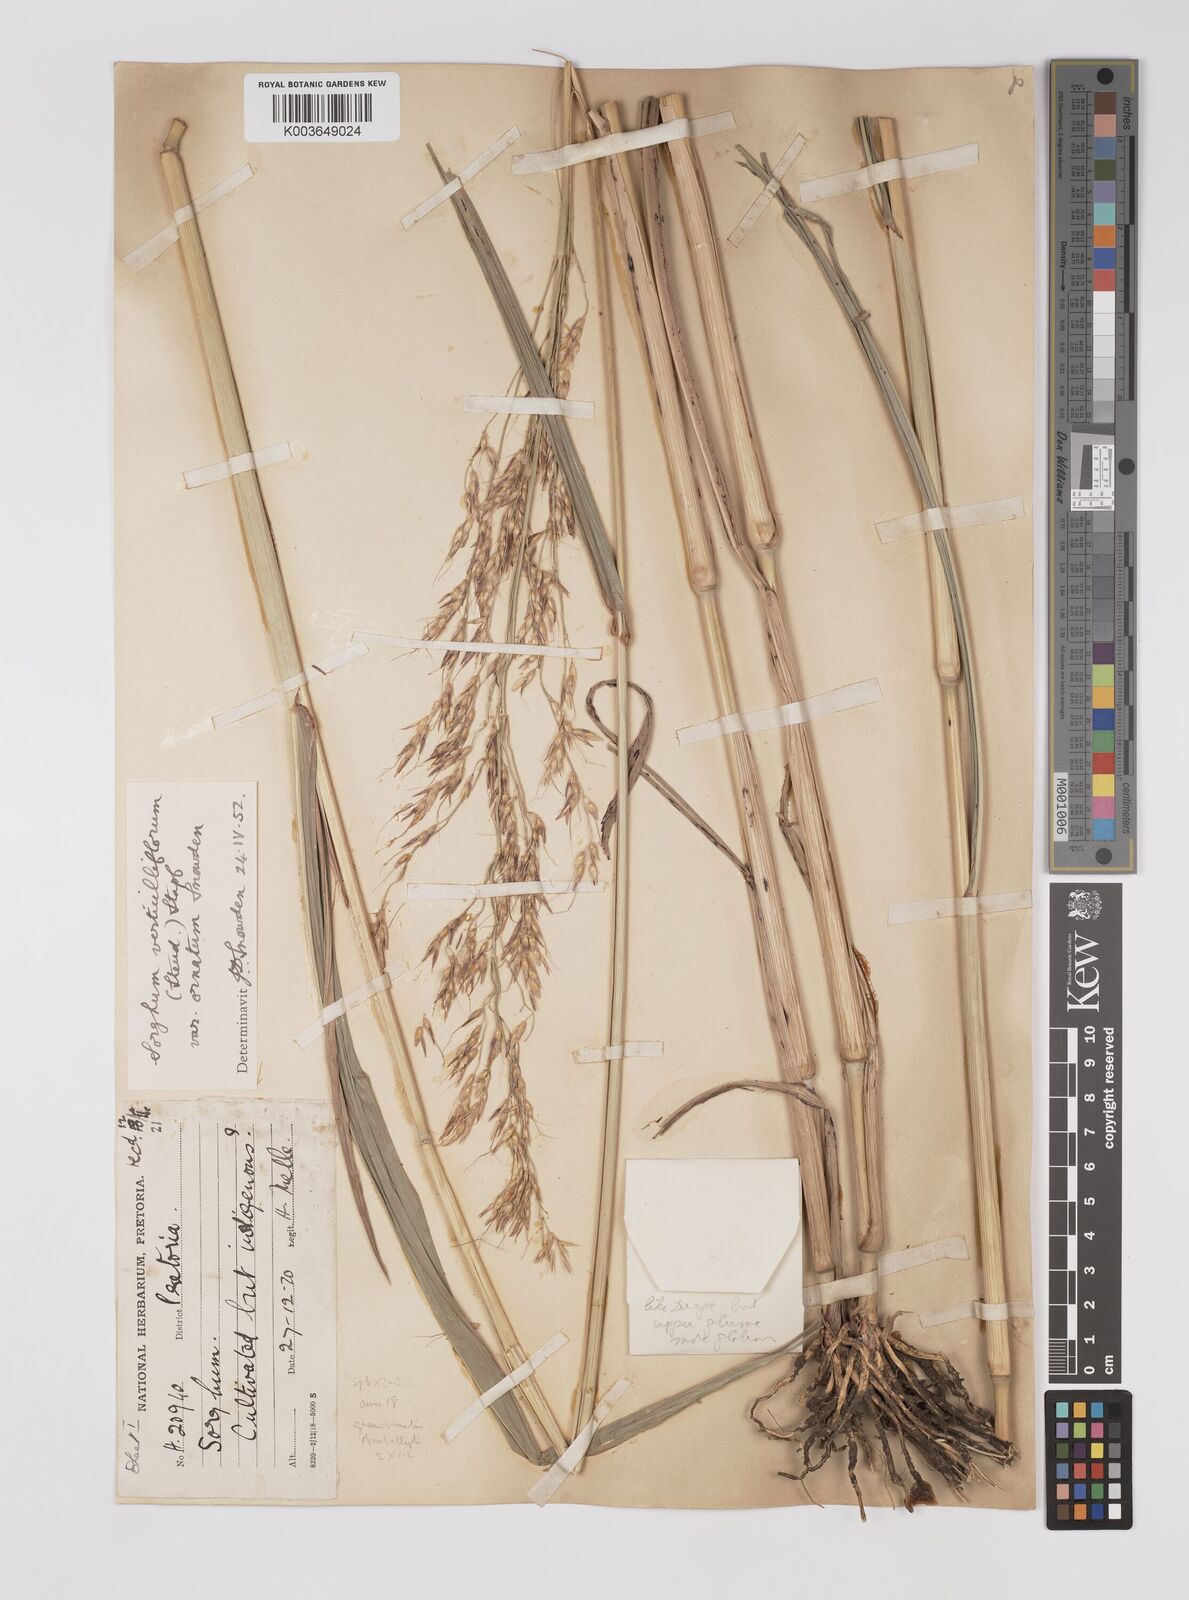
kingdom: Plantae
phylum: Tracheophyta
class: Liliopsida
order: Poales
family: Poaceae
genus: Sorghum
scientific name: Sorghum arundinaceum
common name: Sorghum
